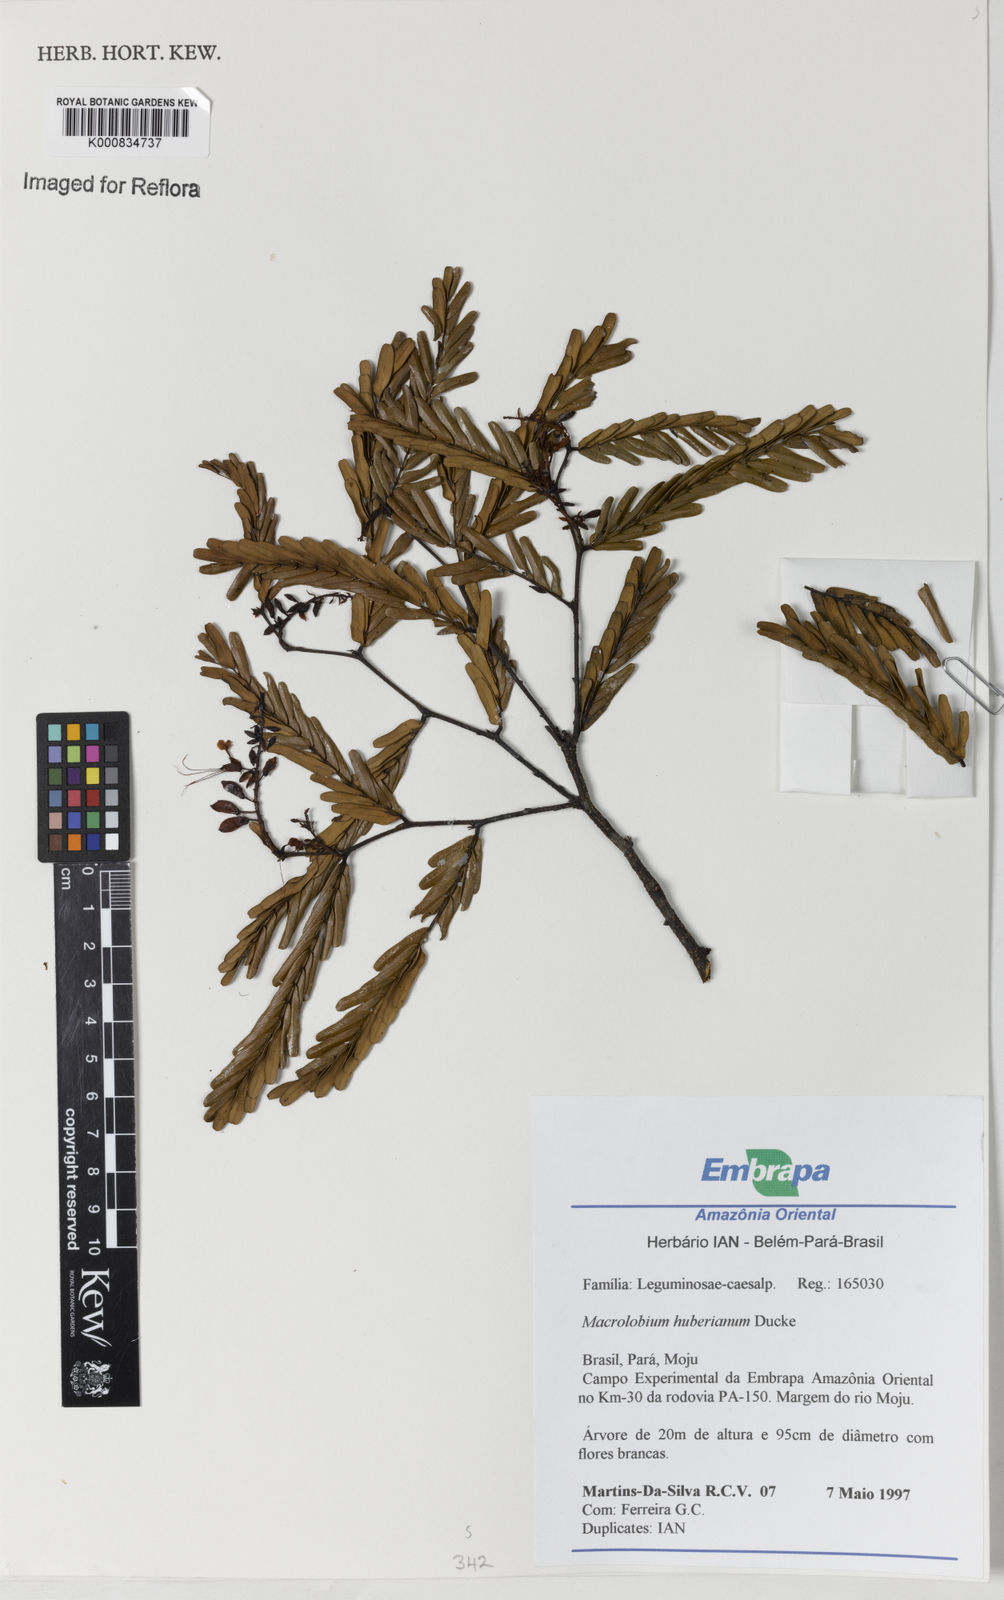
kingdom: Plantae
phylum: Tracheophyta
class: Magnoliopsida
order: Fabales
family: Fabaceae
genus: Macrolobium
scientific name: Macrolobium huberianum
